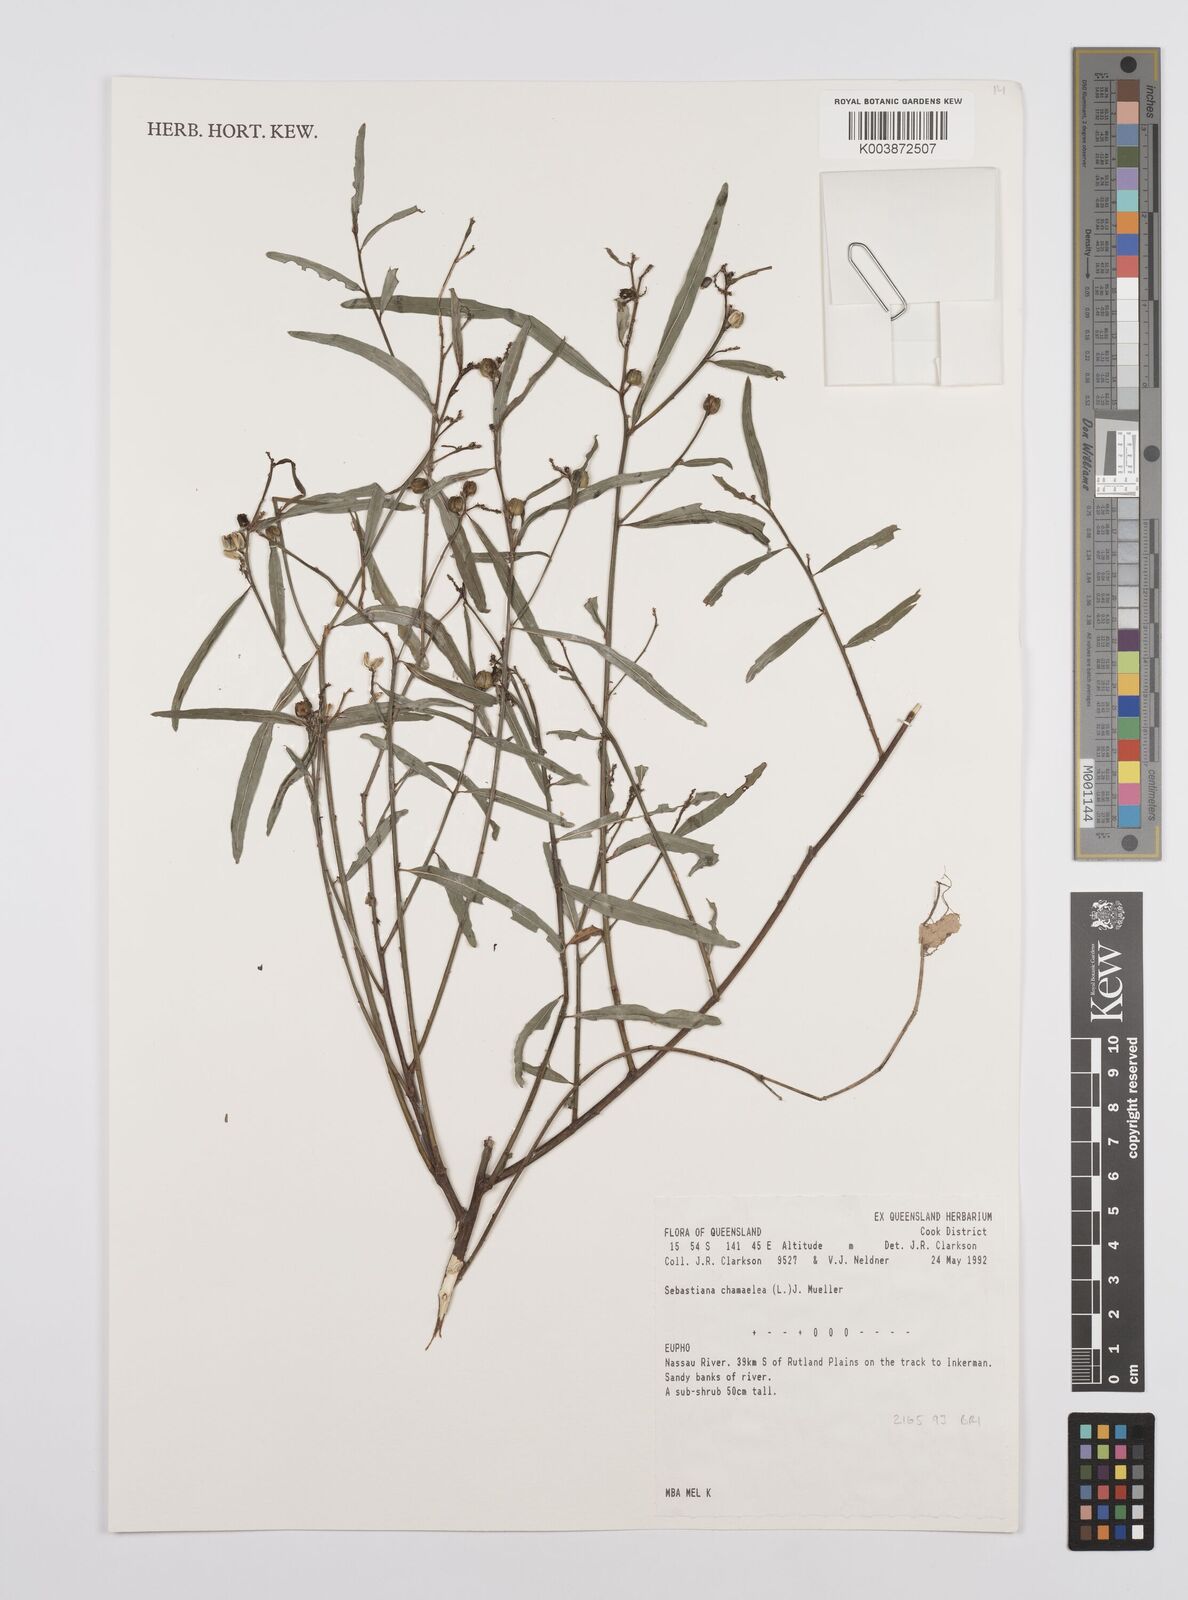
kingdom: Plantae
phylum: Tracheophyta
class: Magnoliopsida
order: Malpighiales
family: Euphorbiaceae
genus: Microstachys
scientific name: Microstachys chamaelea
